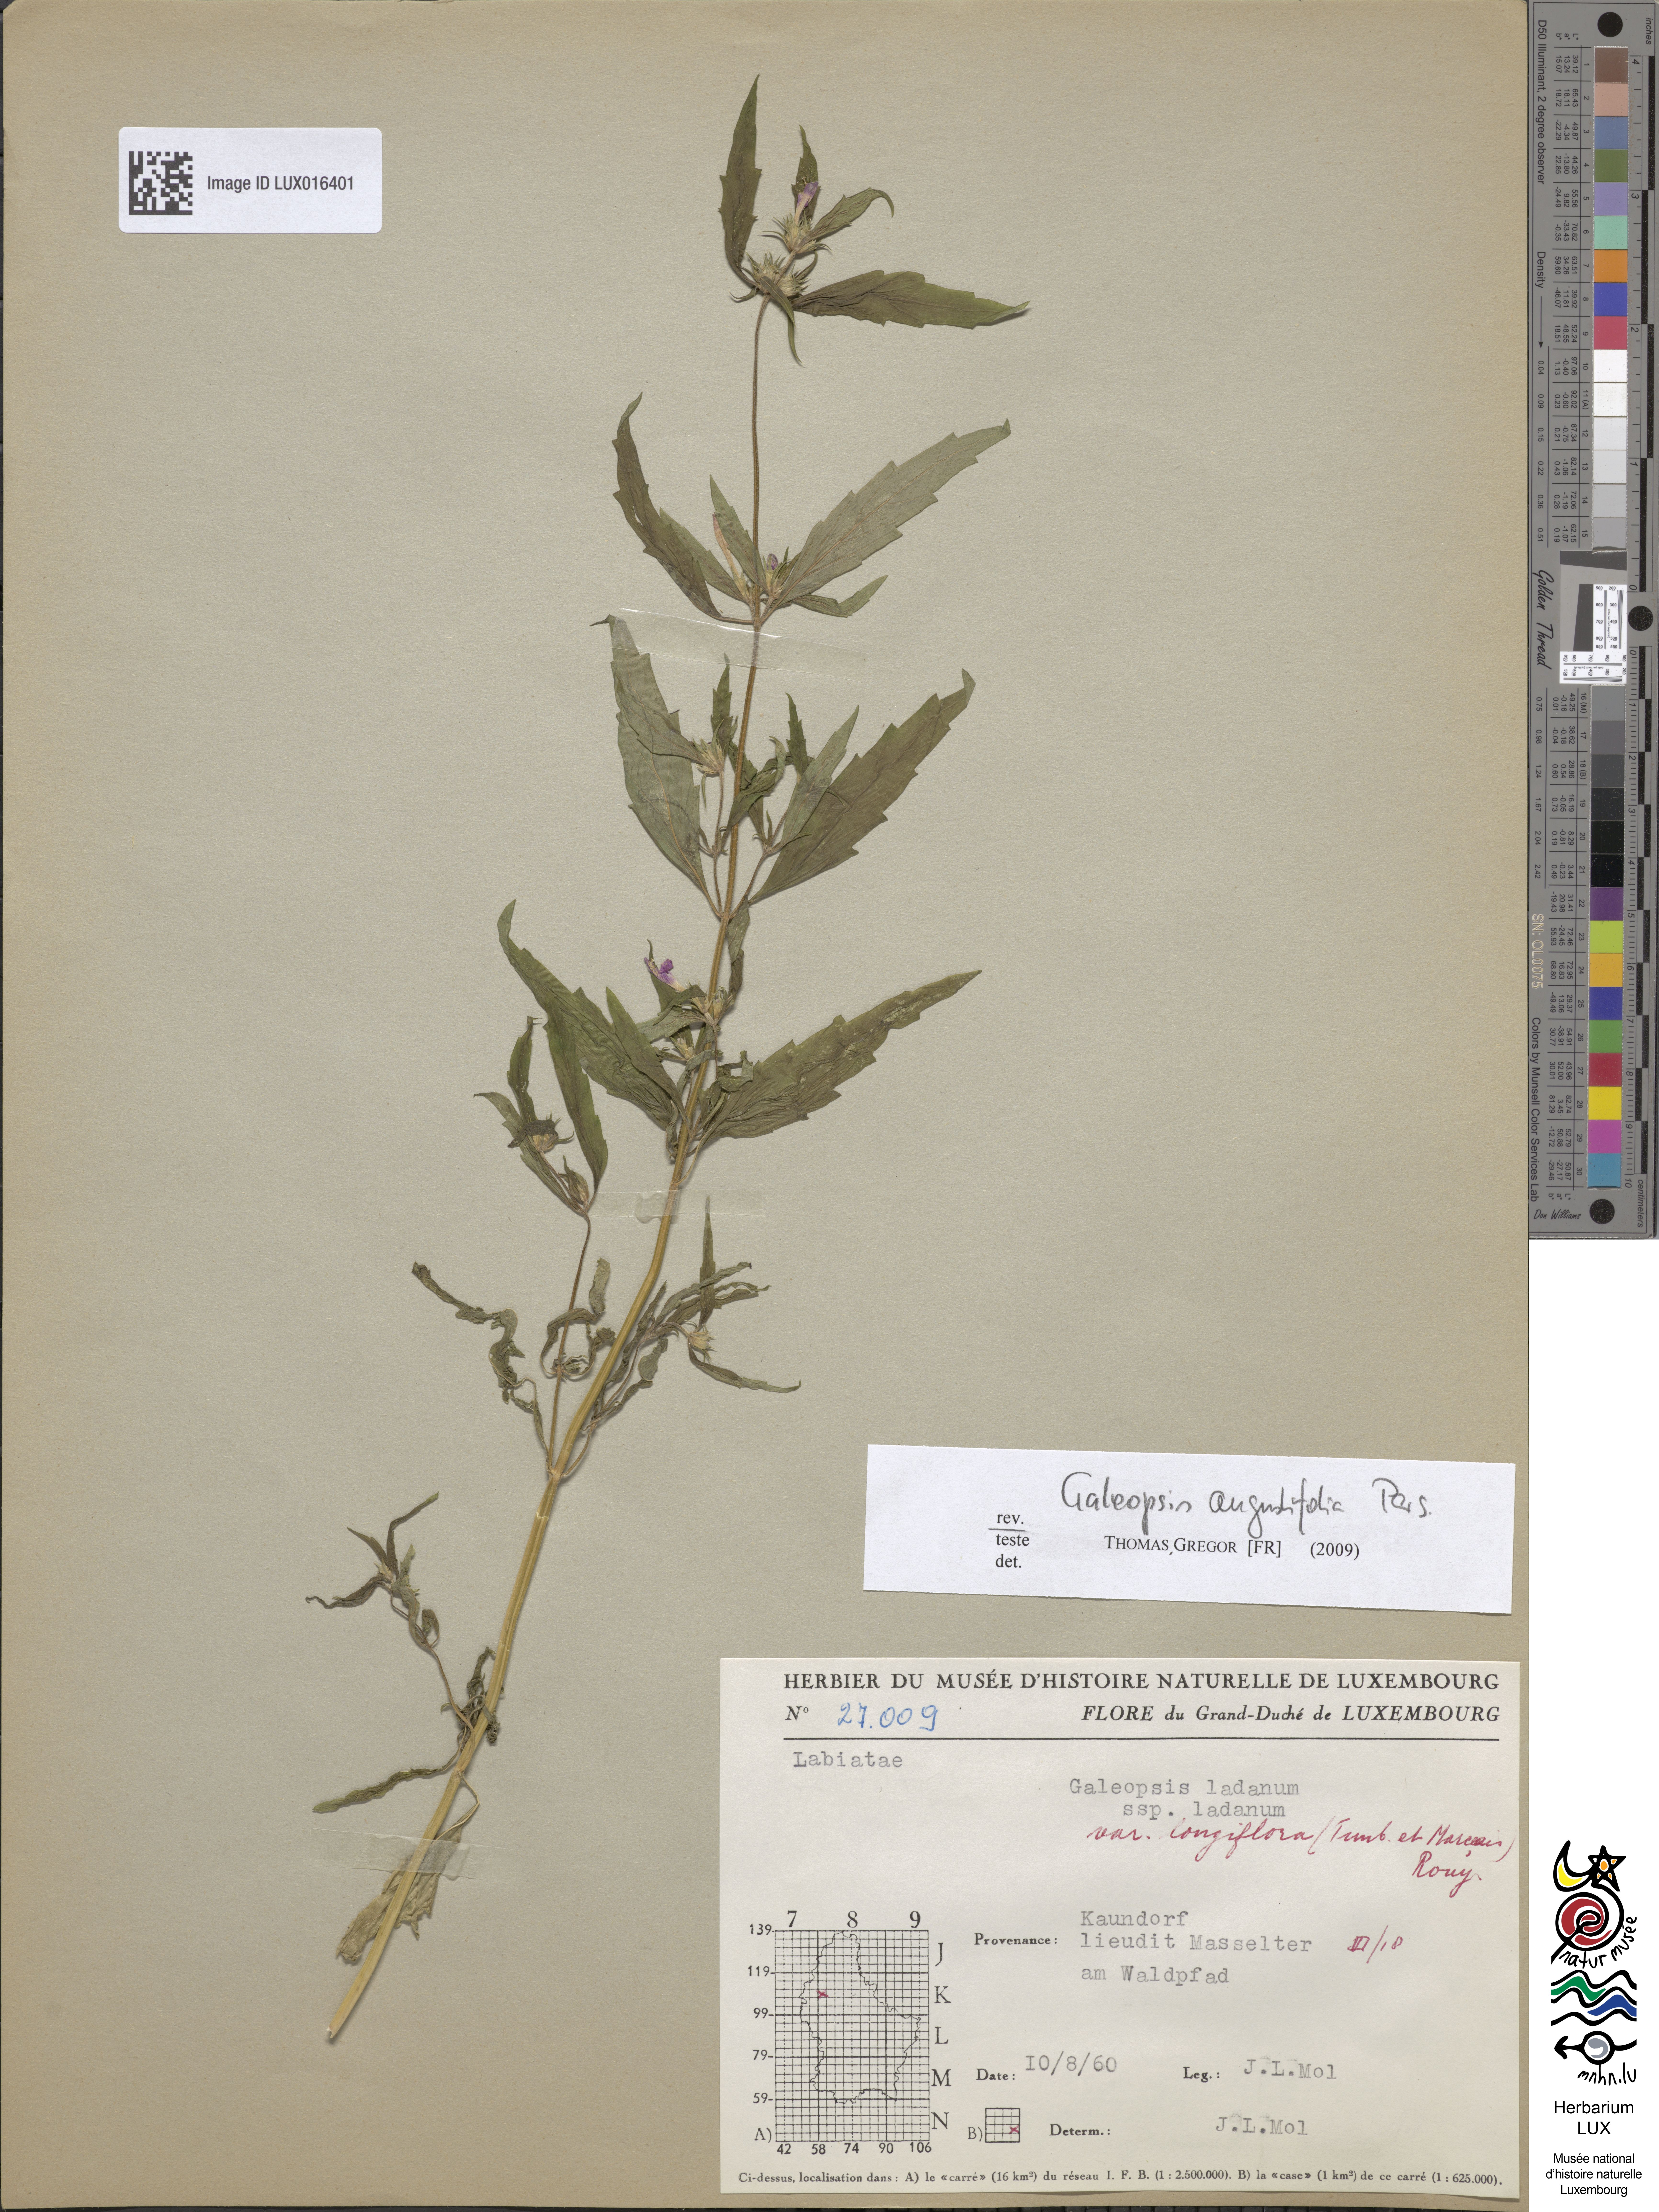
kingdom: Plantae
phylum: Tracheophyta
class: Magnoliopsida
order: Lamiales
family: Lamiaceae
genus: Galeopsis
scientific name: Galeopsis angustifolia
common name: Red hemp-nettle
